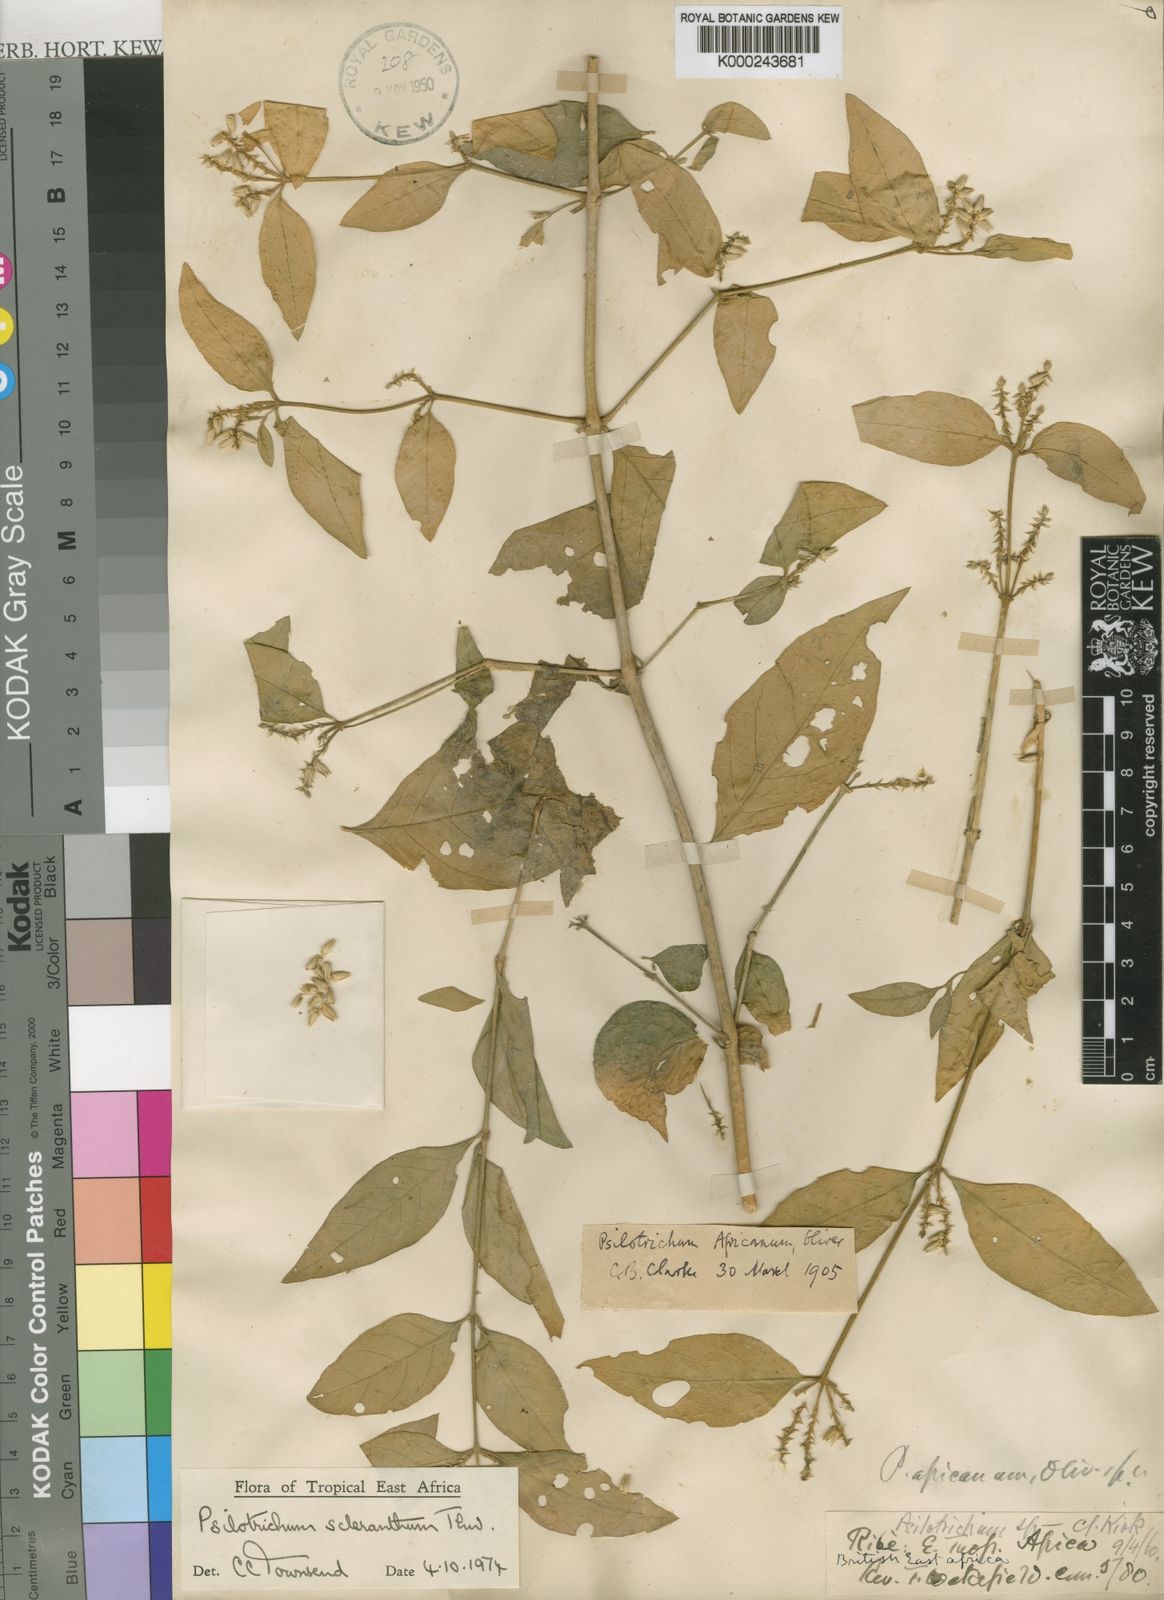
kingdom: Plantae
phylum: Tracheophyta
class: Magnoliopsida
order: Caryophyllales
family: Amaranthaceae
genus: Psilotrichum
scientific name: Psilotrichum scleranthum
